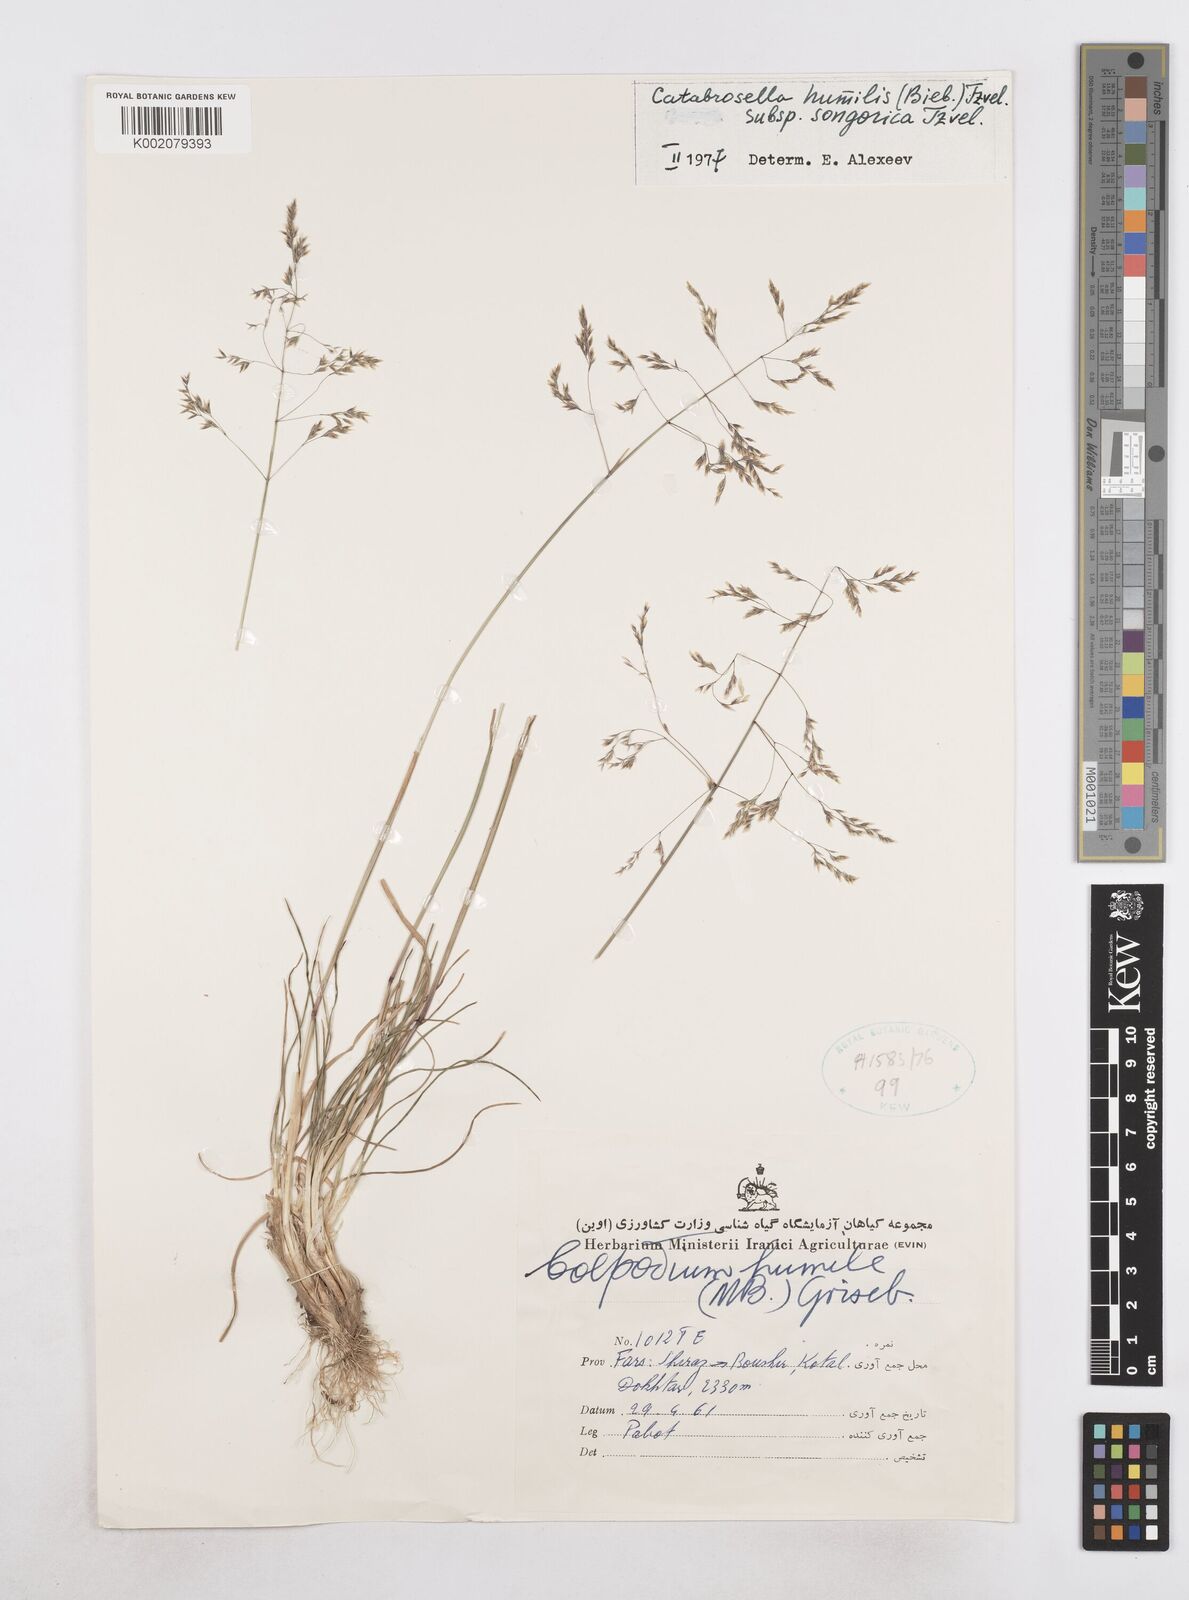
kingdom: Plantae
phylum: Tracheophyta
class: Liliopsida
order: Poales
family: Poaceae
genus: Catabrosella
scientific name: Catabrosella humilis
